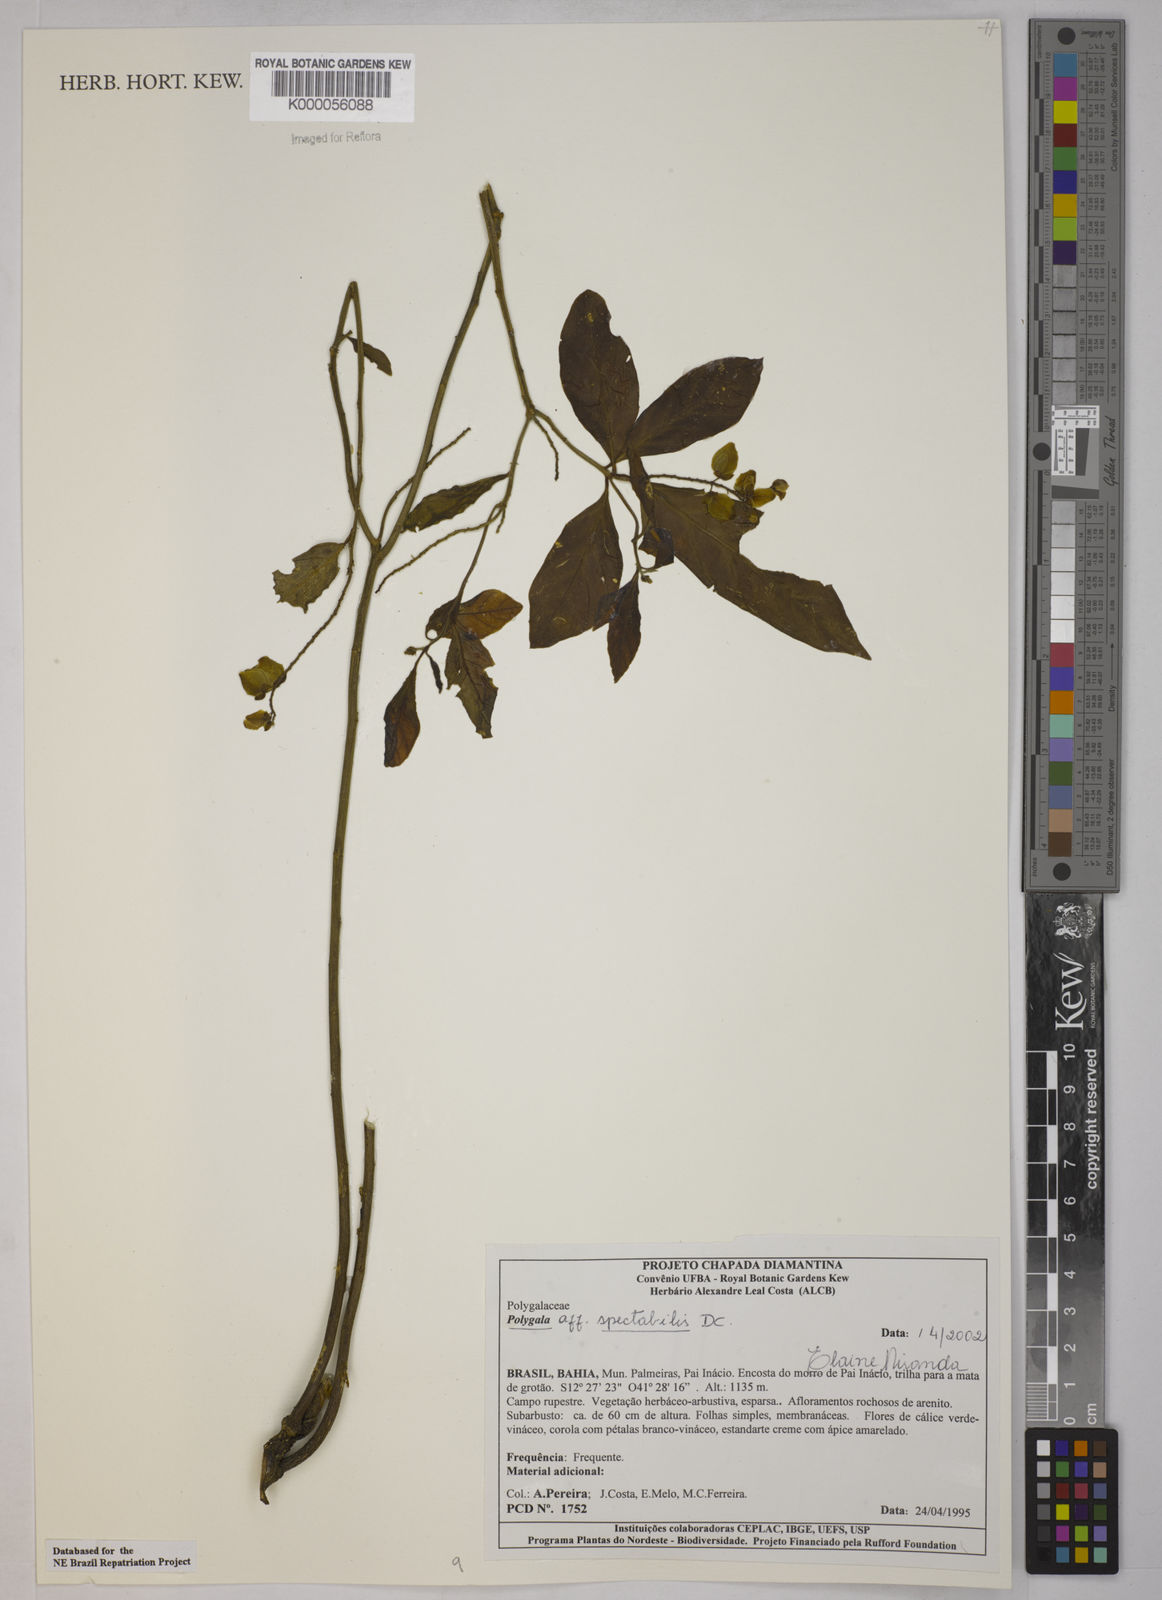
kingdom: Plantae
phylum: Tracheophyta
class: Magnoliopsida
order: Fabales
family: Polygalaceae
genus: Caamembeca
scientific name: Caamembeca spectabilis
